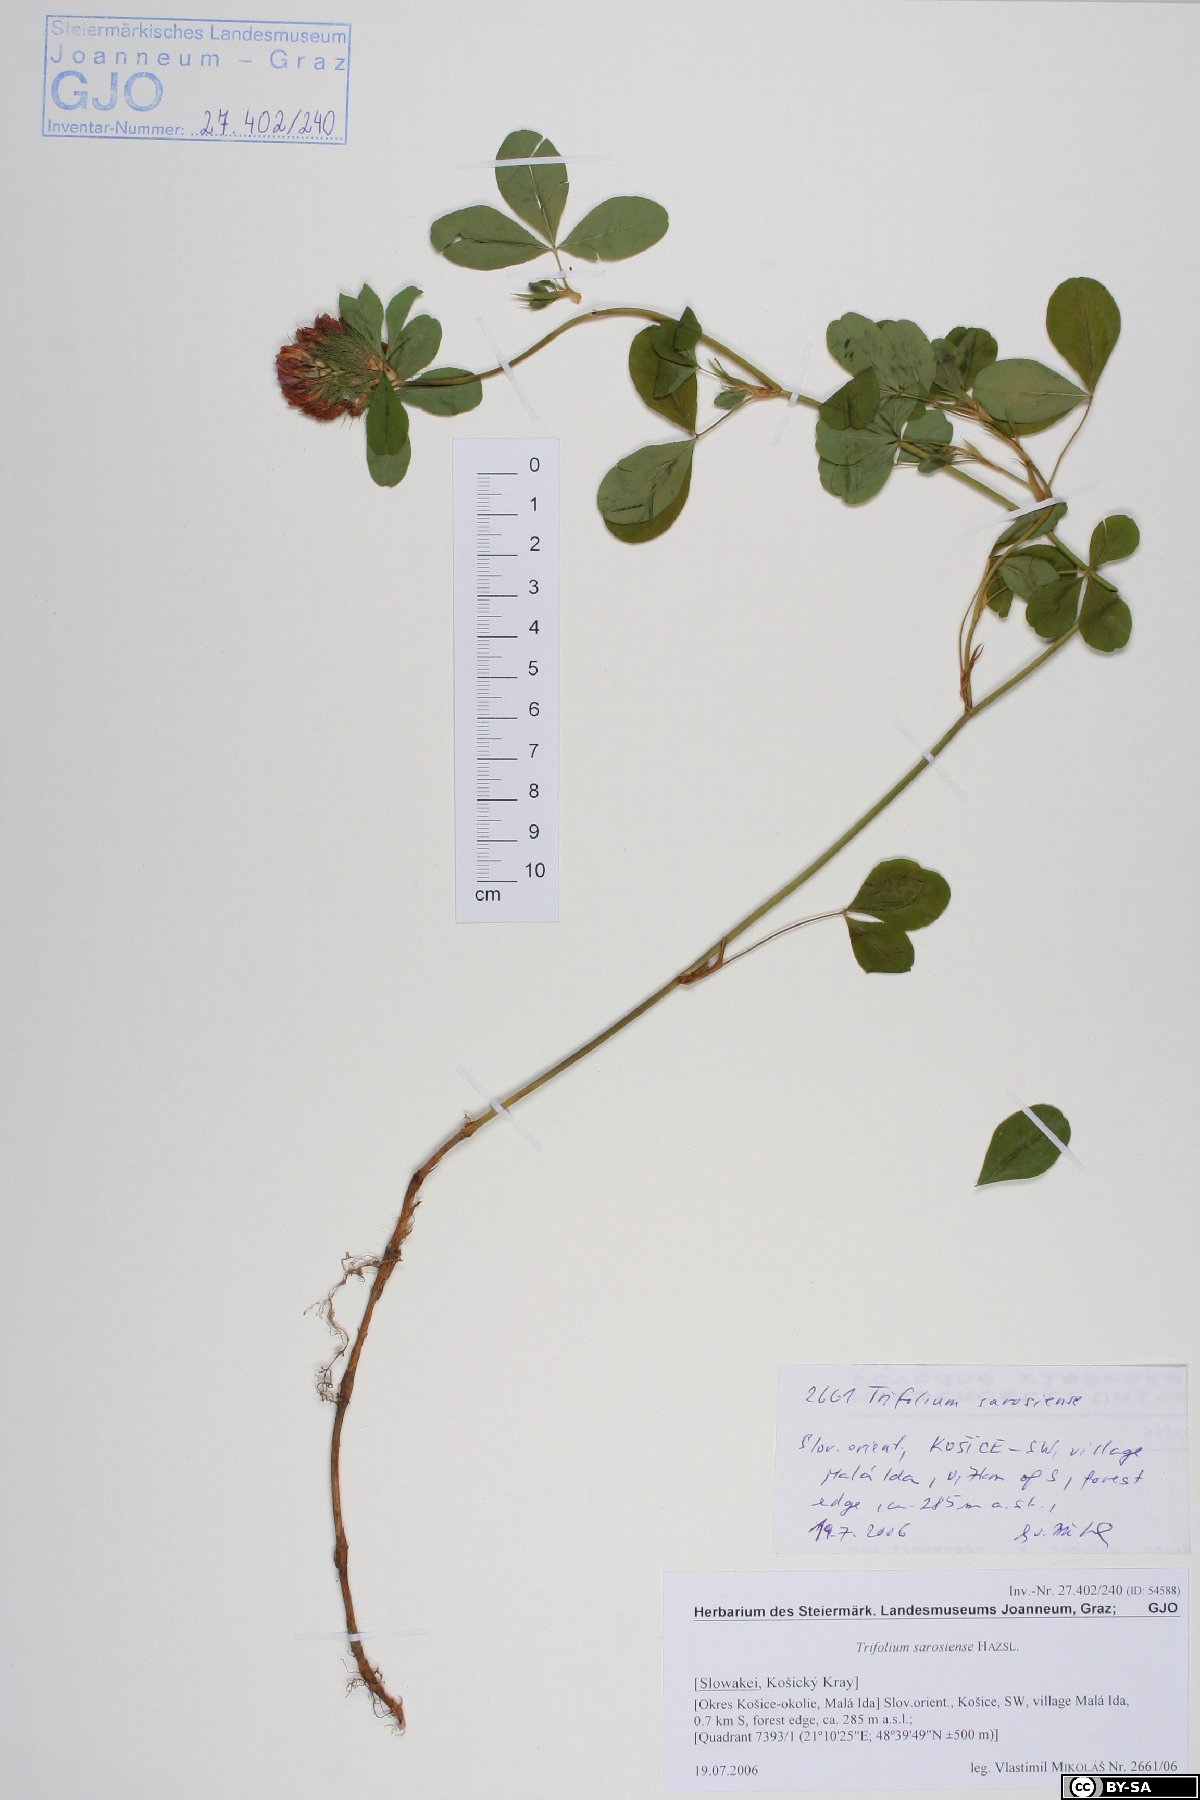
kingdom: Plantae
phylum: Tracheophyta
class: Magnoliopsida
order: Fabales
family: Fabaceae
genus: Trifolium
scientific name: Trifolium sarosiense
